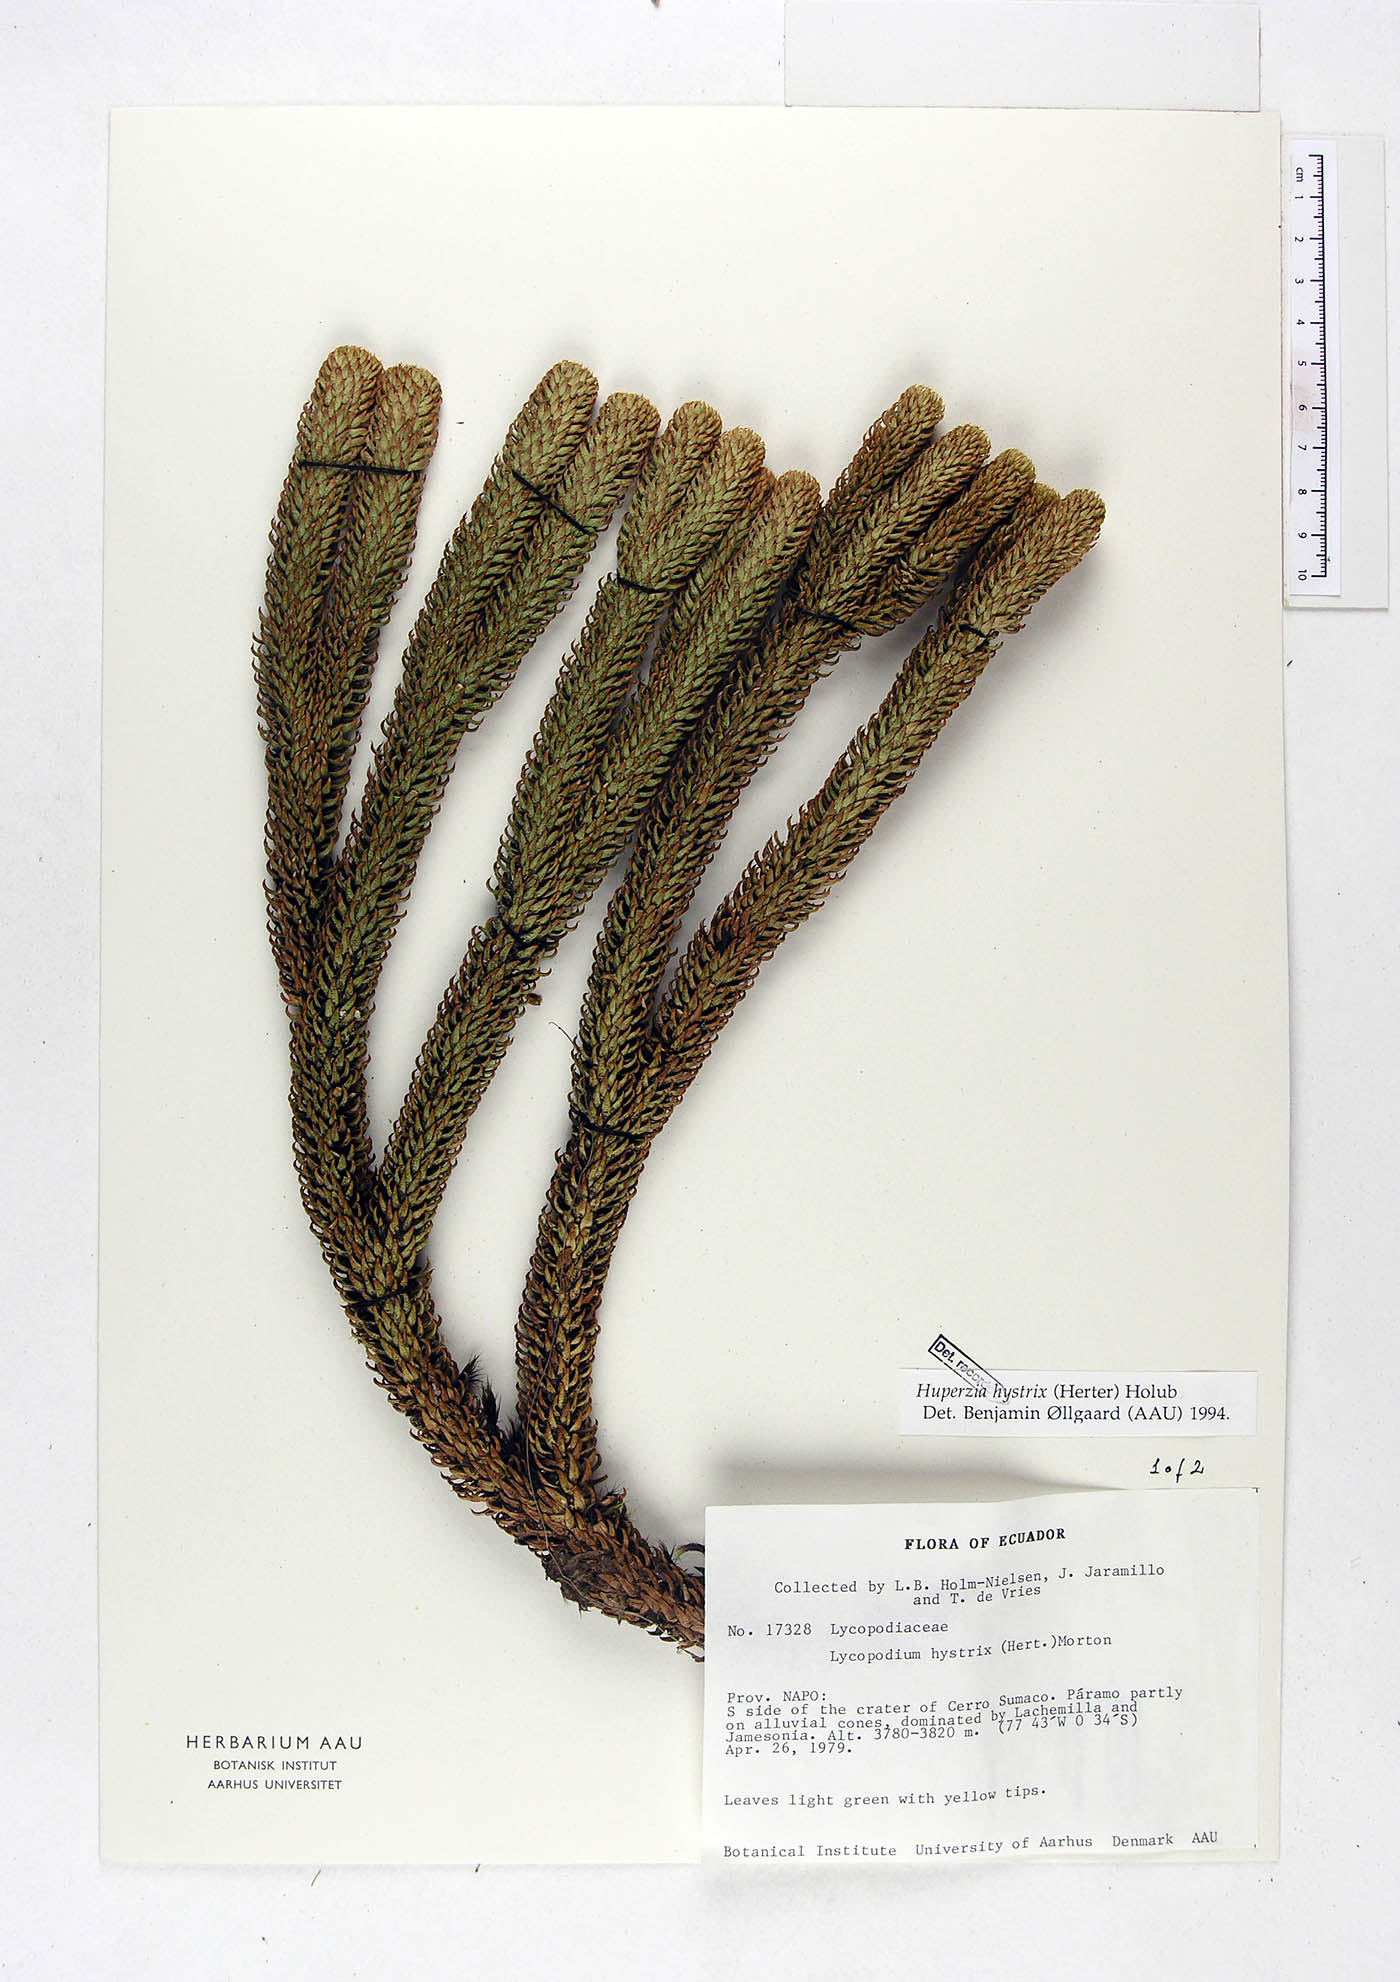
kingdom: Plantae
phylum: Tracheophyta
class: Lycopodiopsida
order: Lycopodiales
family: Lycopodiaceae
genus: Phlegmariurus
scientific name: Phlegmariurus hystrix
